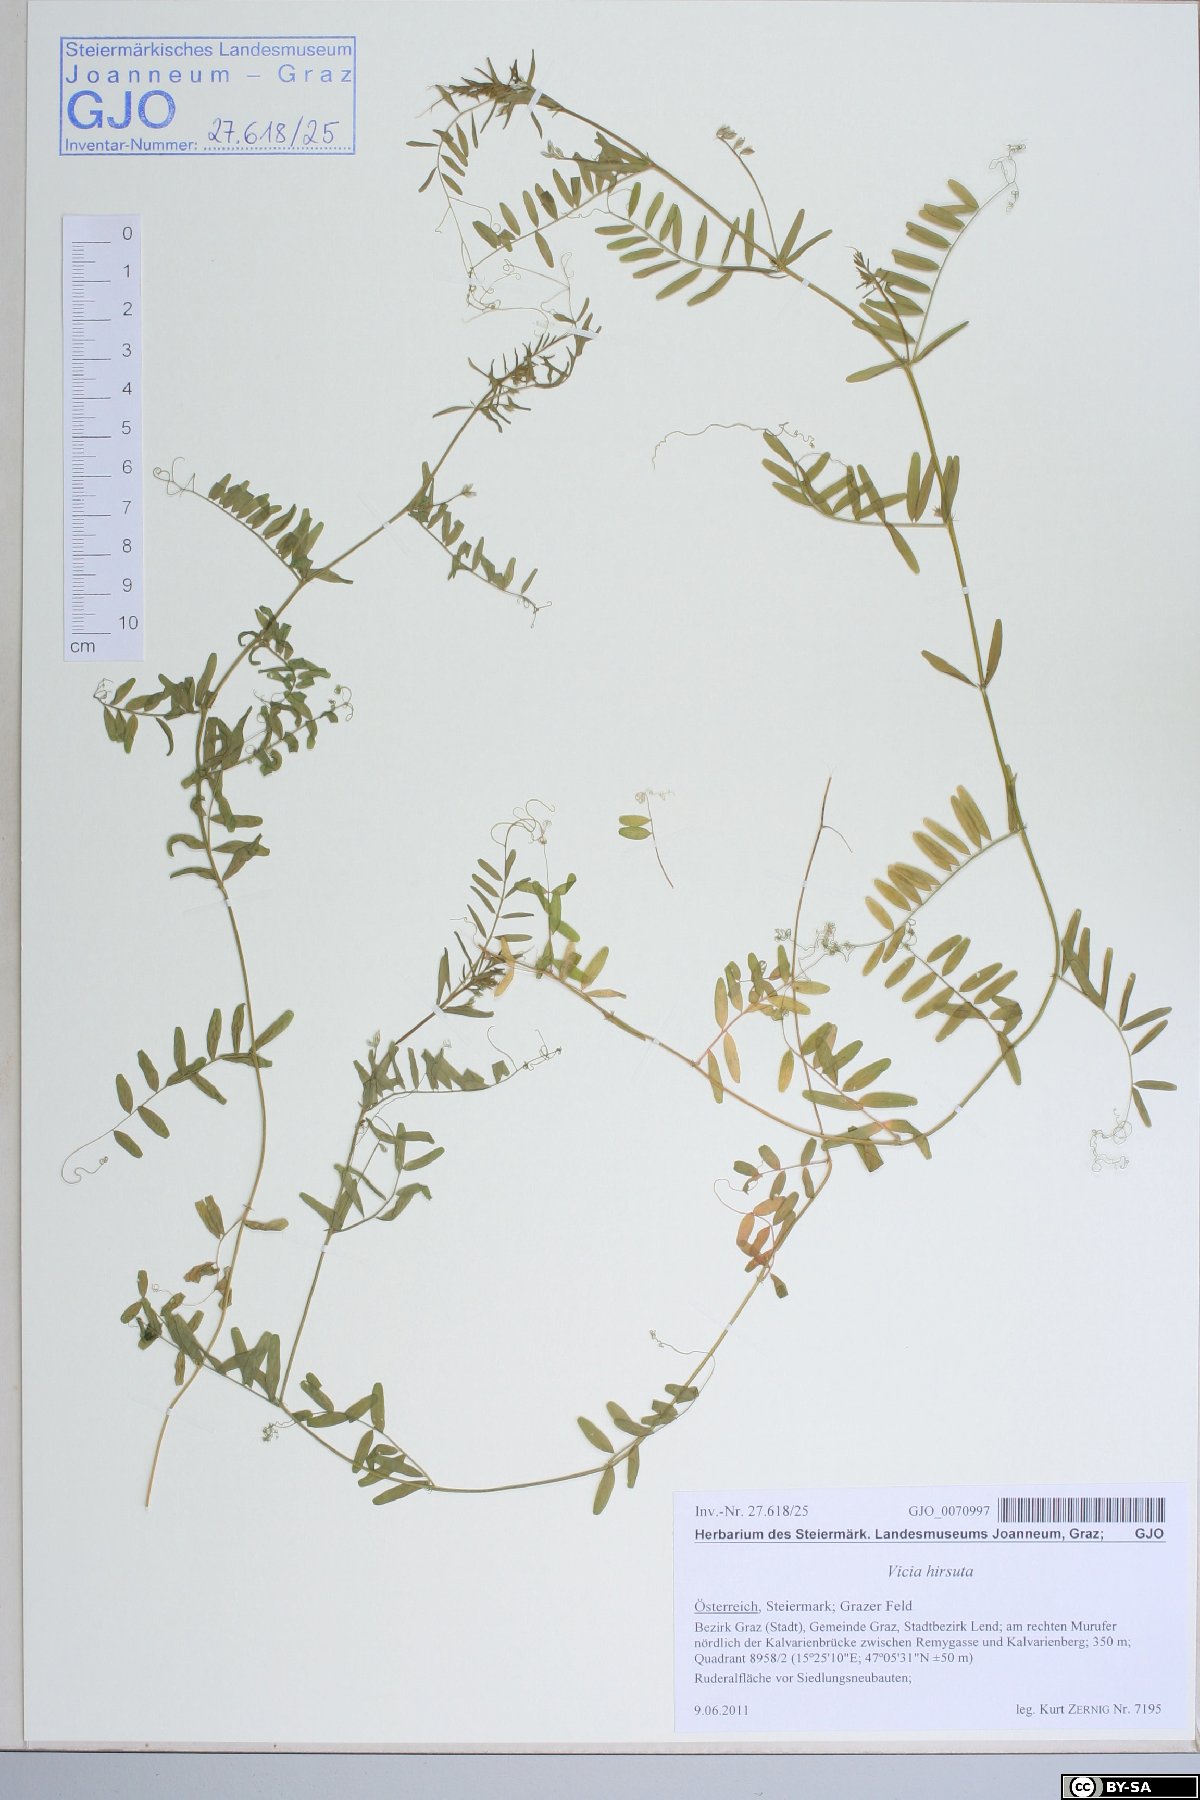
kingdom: Plantae
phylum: Tracheophyta
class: Magnoliopsida
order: Fabales
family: Fabaceae
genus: Vicia
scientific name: Vicia hirsuta
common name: Tiny vetch
